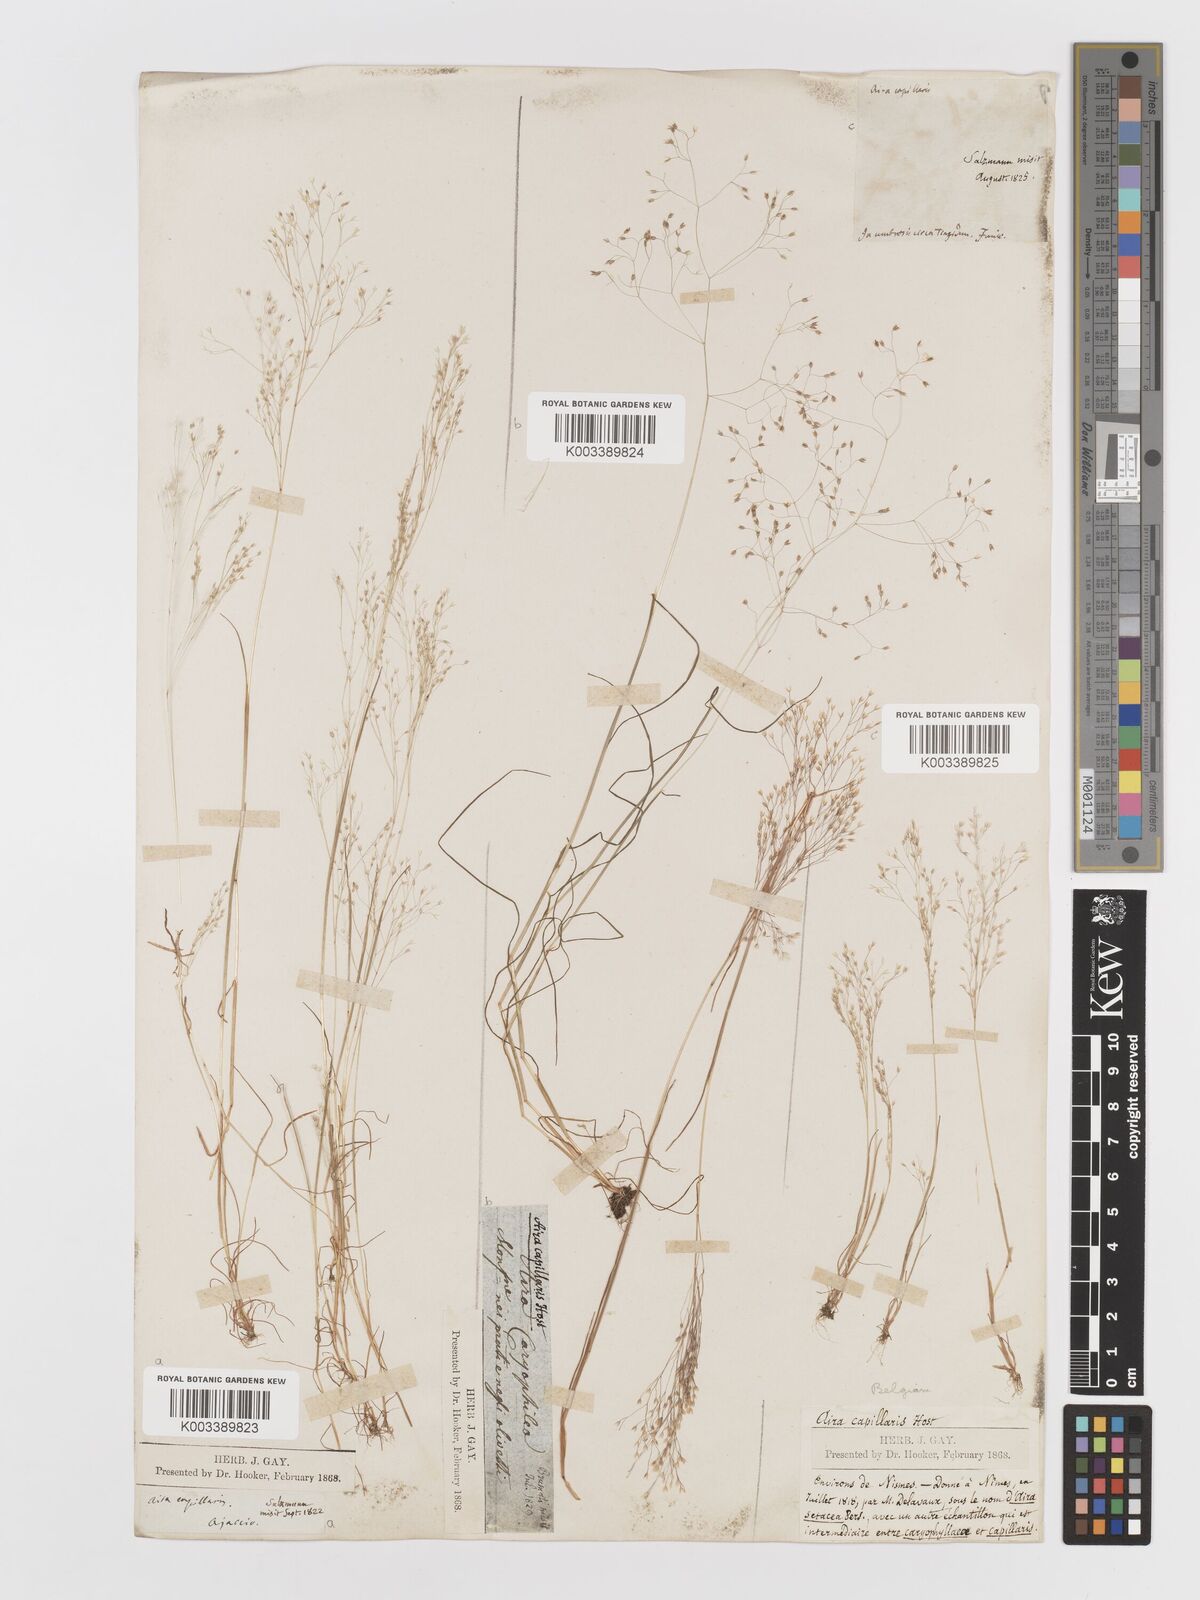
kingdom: Plantae
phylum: Tracheophyta
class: Liliopsida
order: Poales
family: Poaceae
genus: Aira
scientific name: Aira elegans
